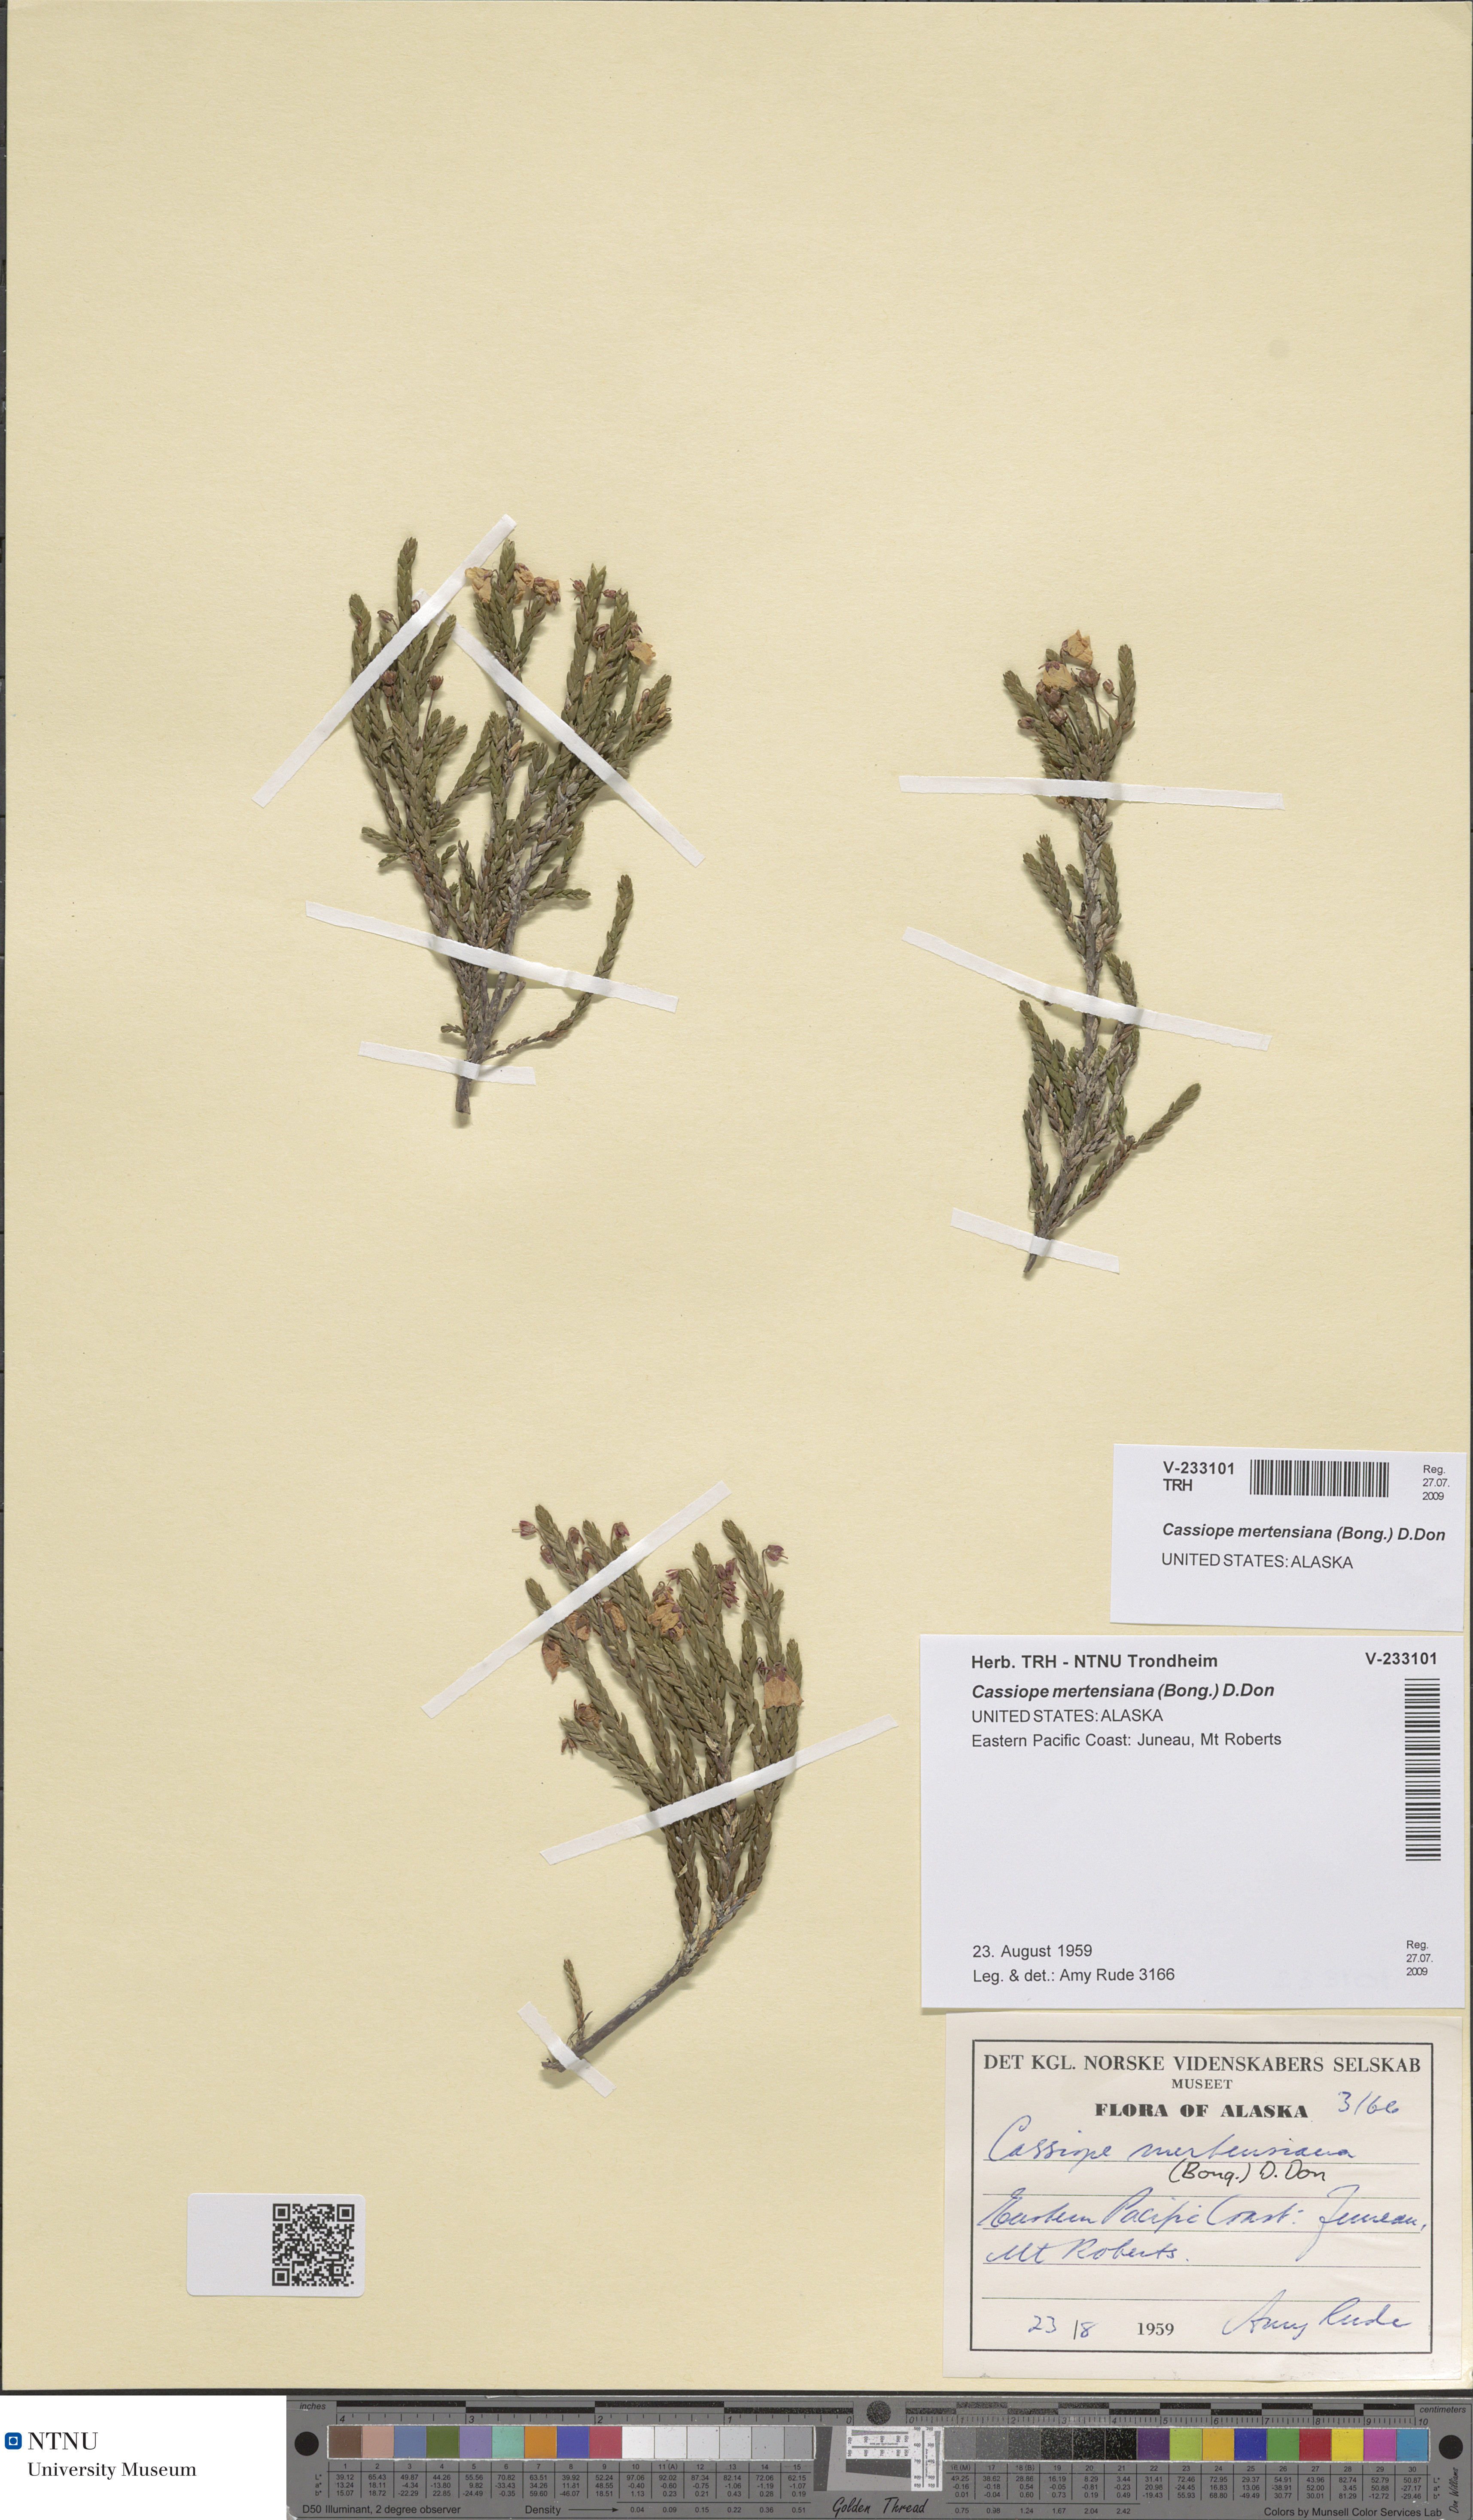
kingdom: Plantae
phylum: Tracheophyta
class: Magnoliopsida
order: Ericales
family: Ericaceae
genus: Cassiope
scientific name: Cassiope mertensiana
